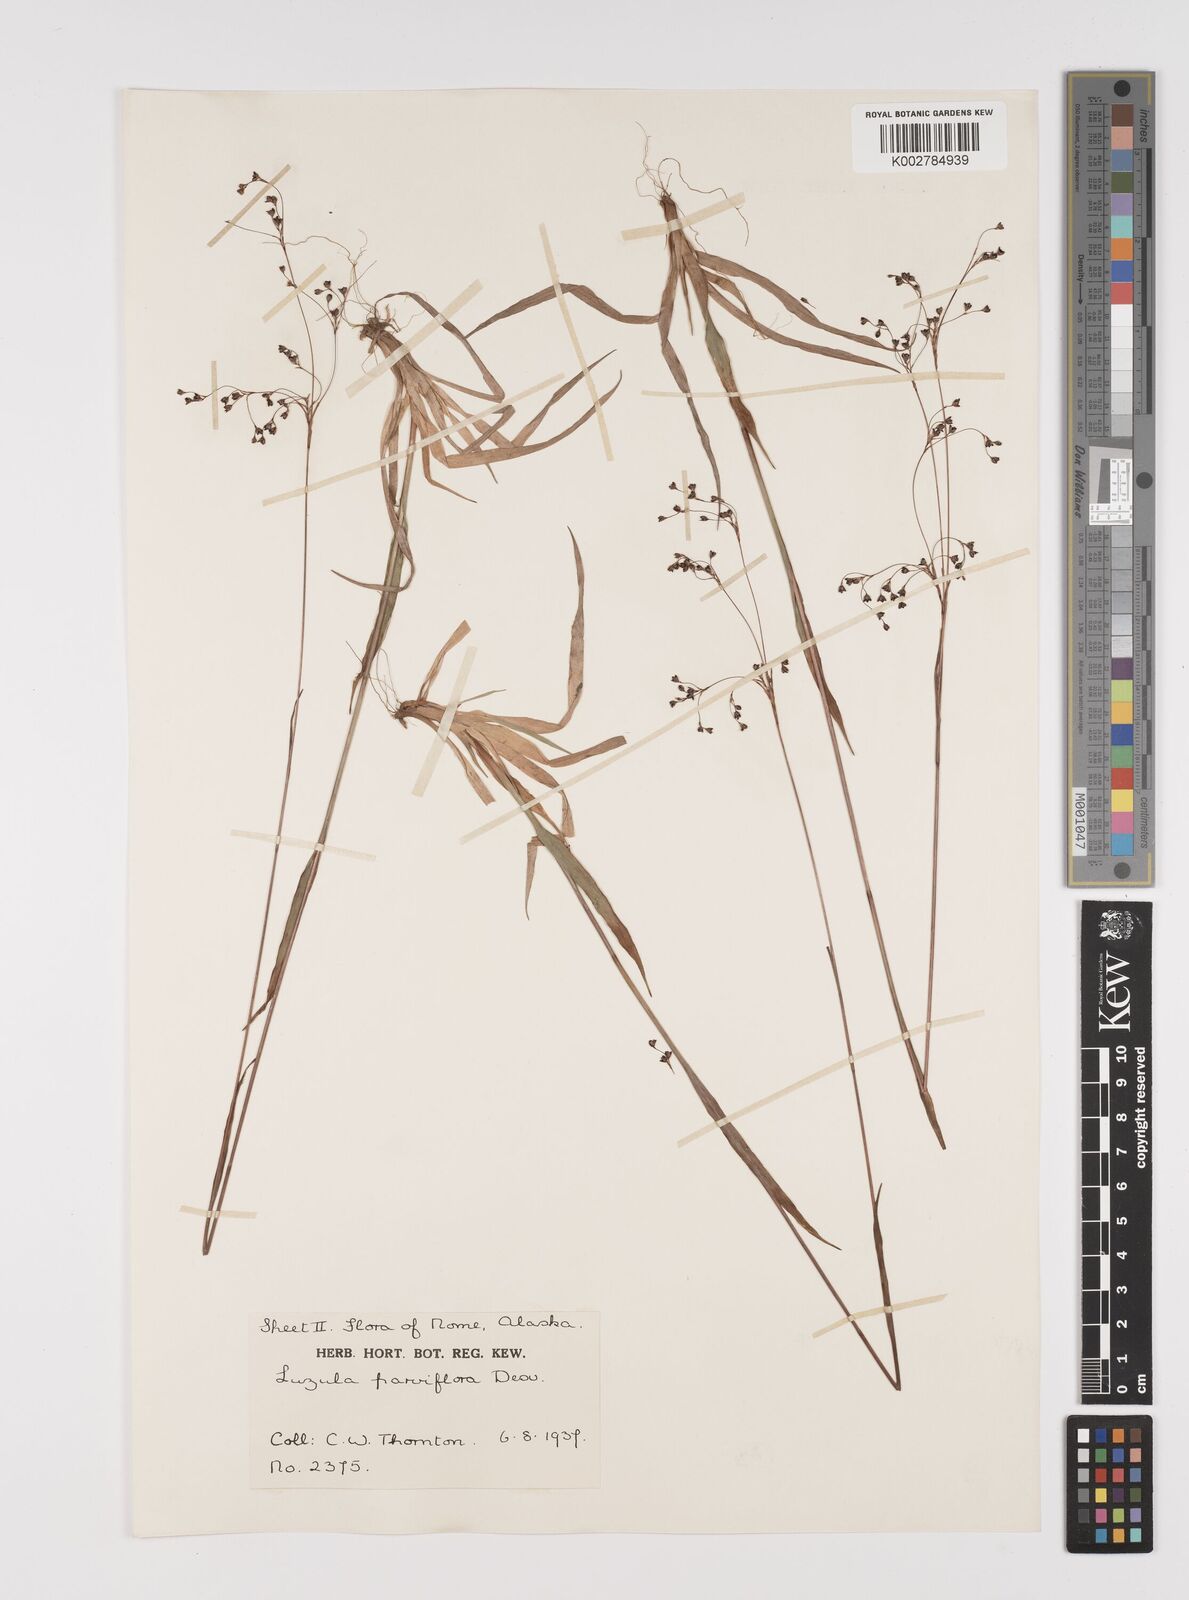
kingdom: Plantae
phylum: Tracheophyta
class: Liliopsida
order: Poales
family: Juncaceae
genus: Luzula
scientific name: Luzula parviflora
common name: Millet woodrush
